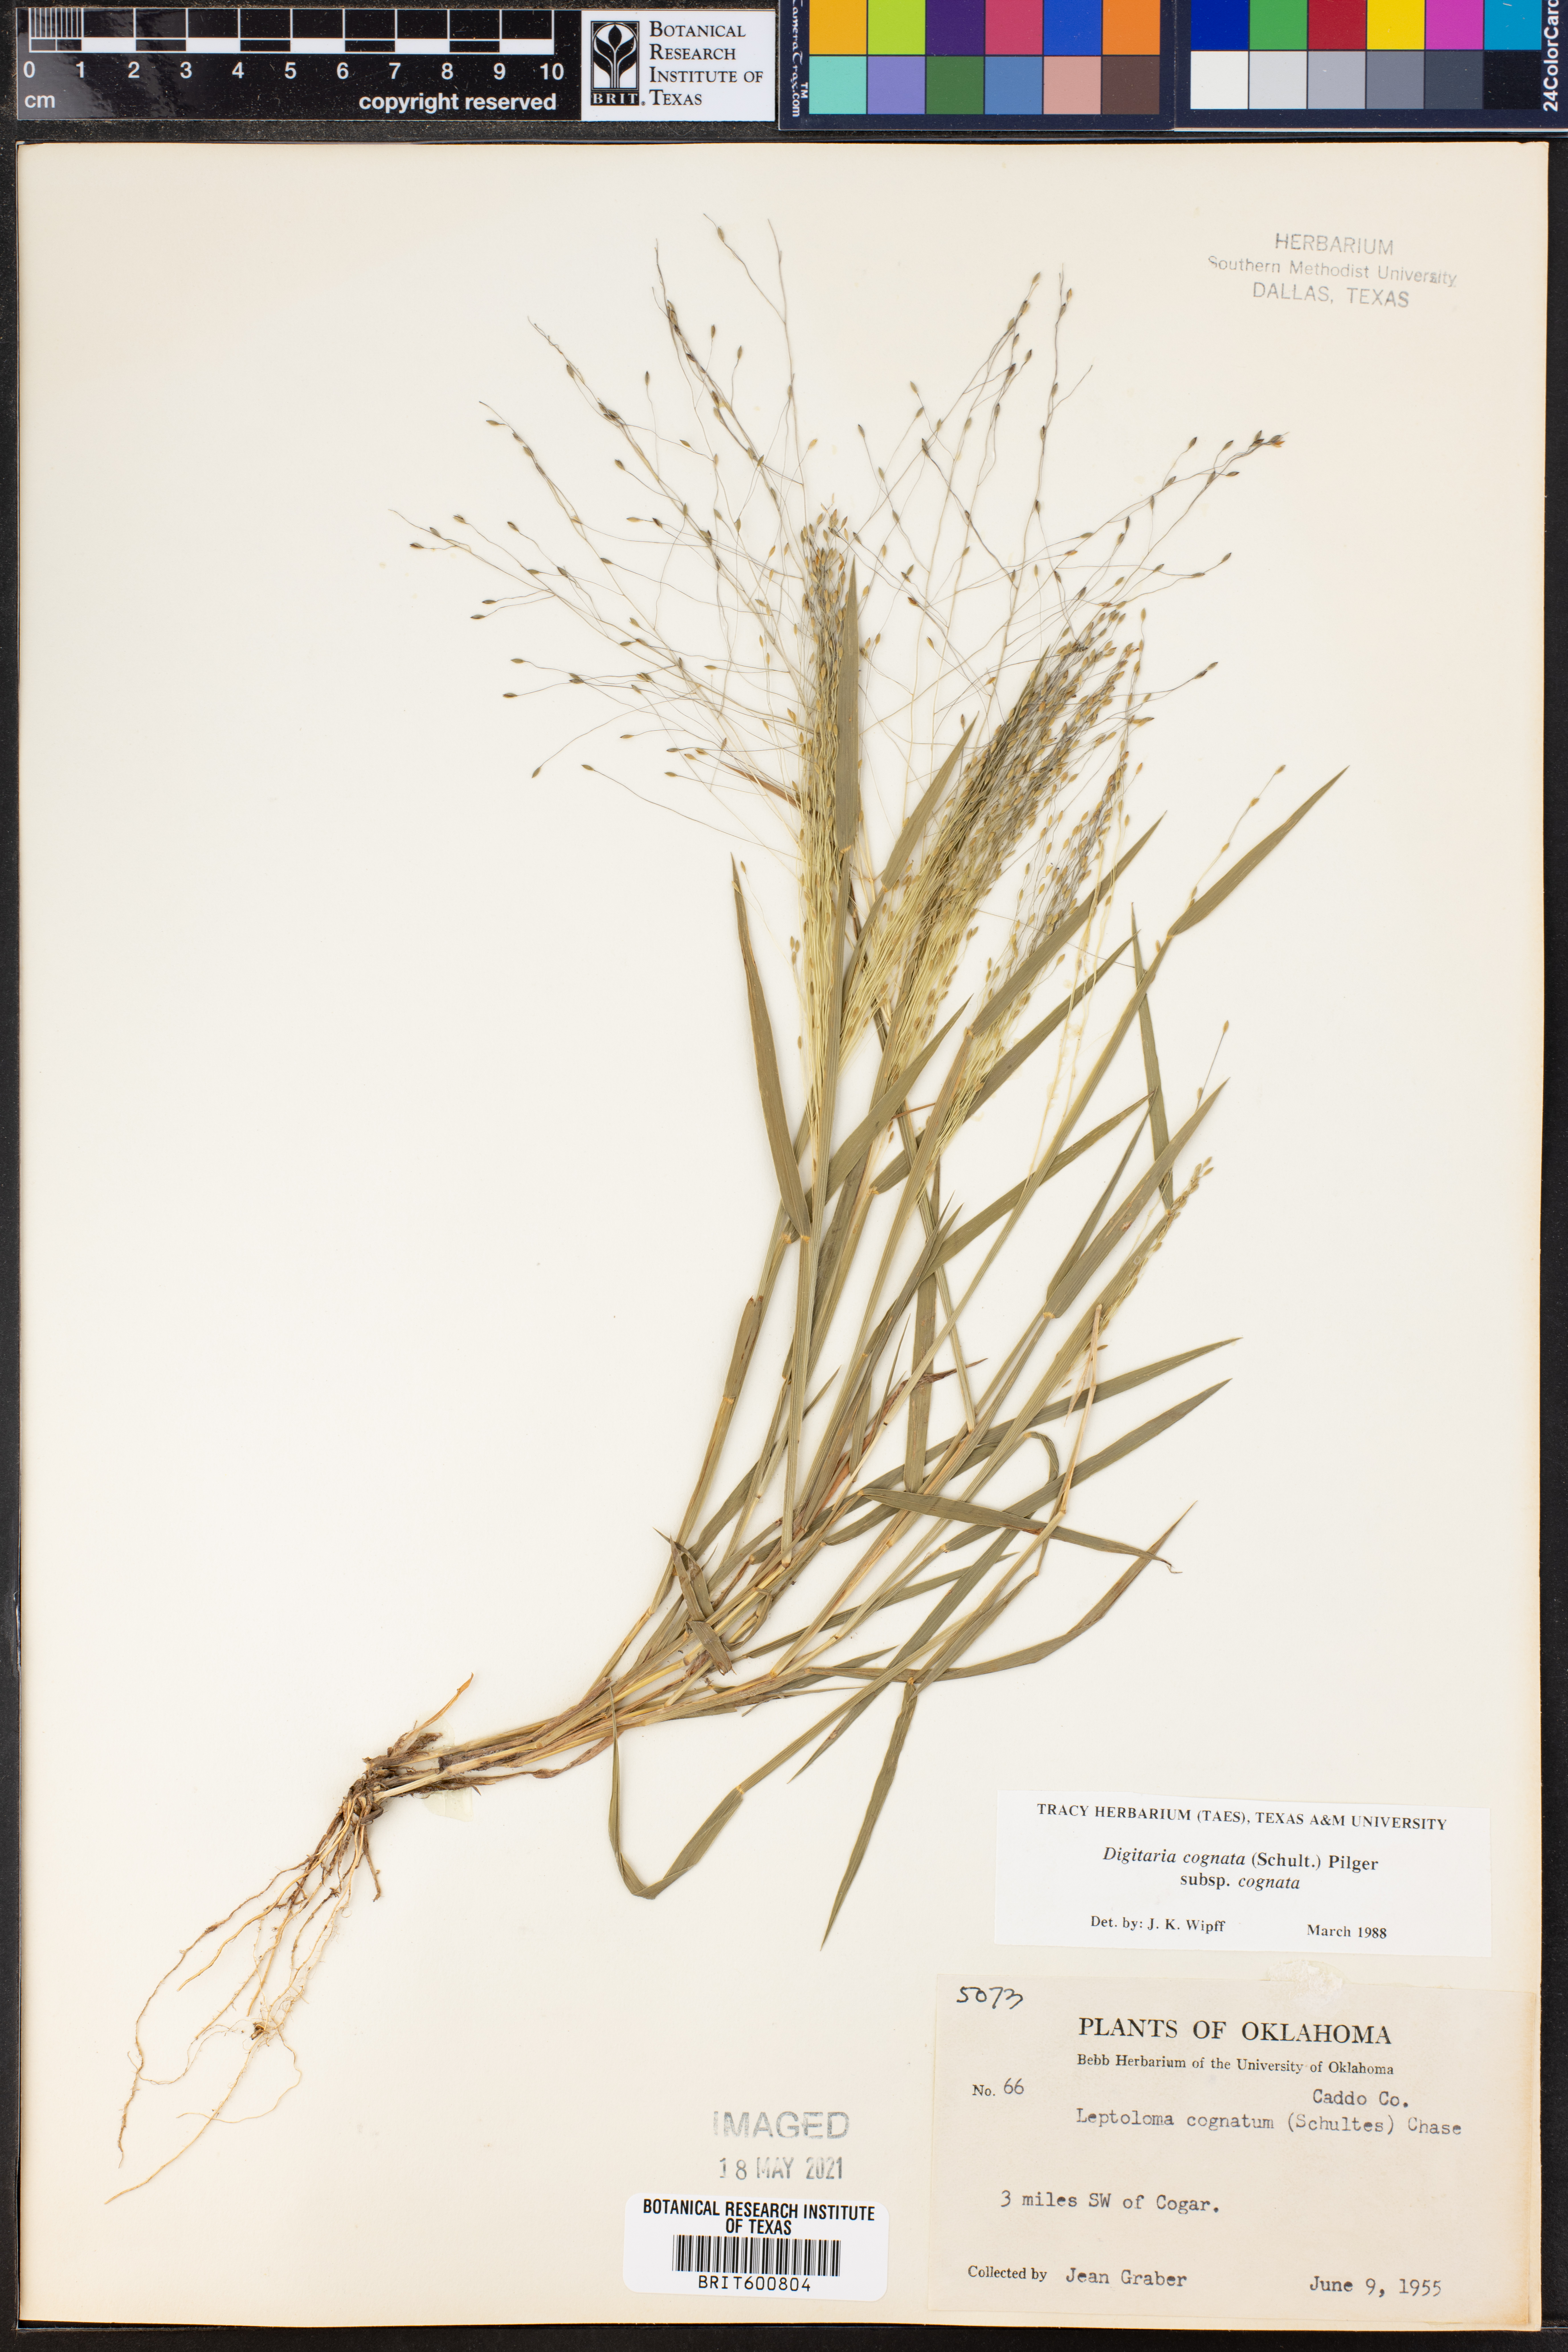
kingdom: Plantae
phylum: Tracheophyta
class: Liliopsida
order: Poales
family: Poaceae
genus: Digitaria
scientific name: Digitaria cognata
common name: Fall witchgrass
